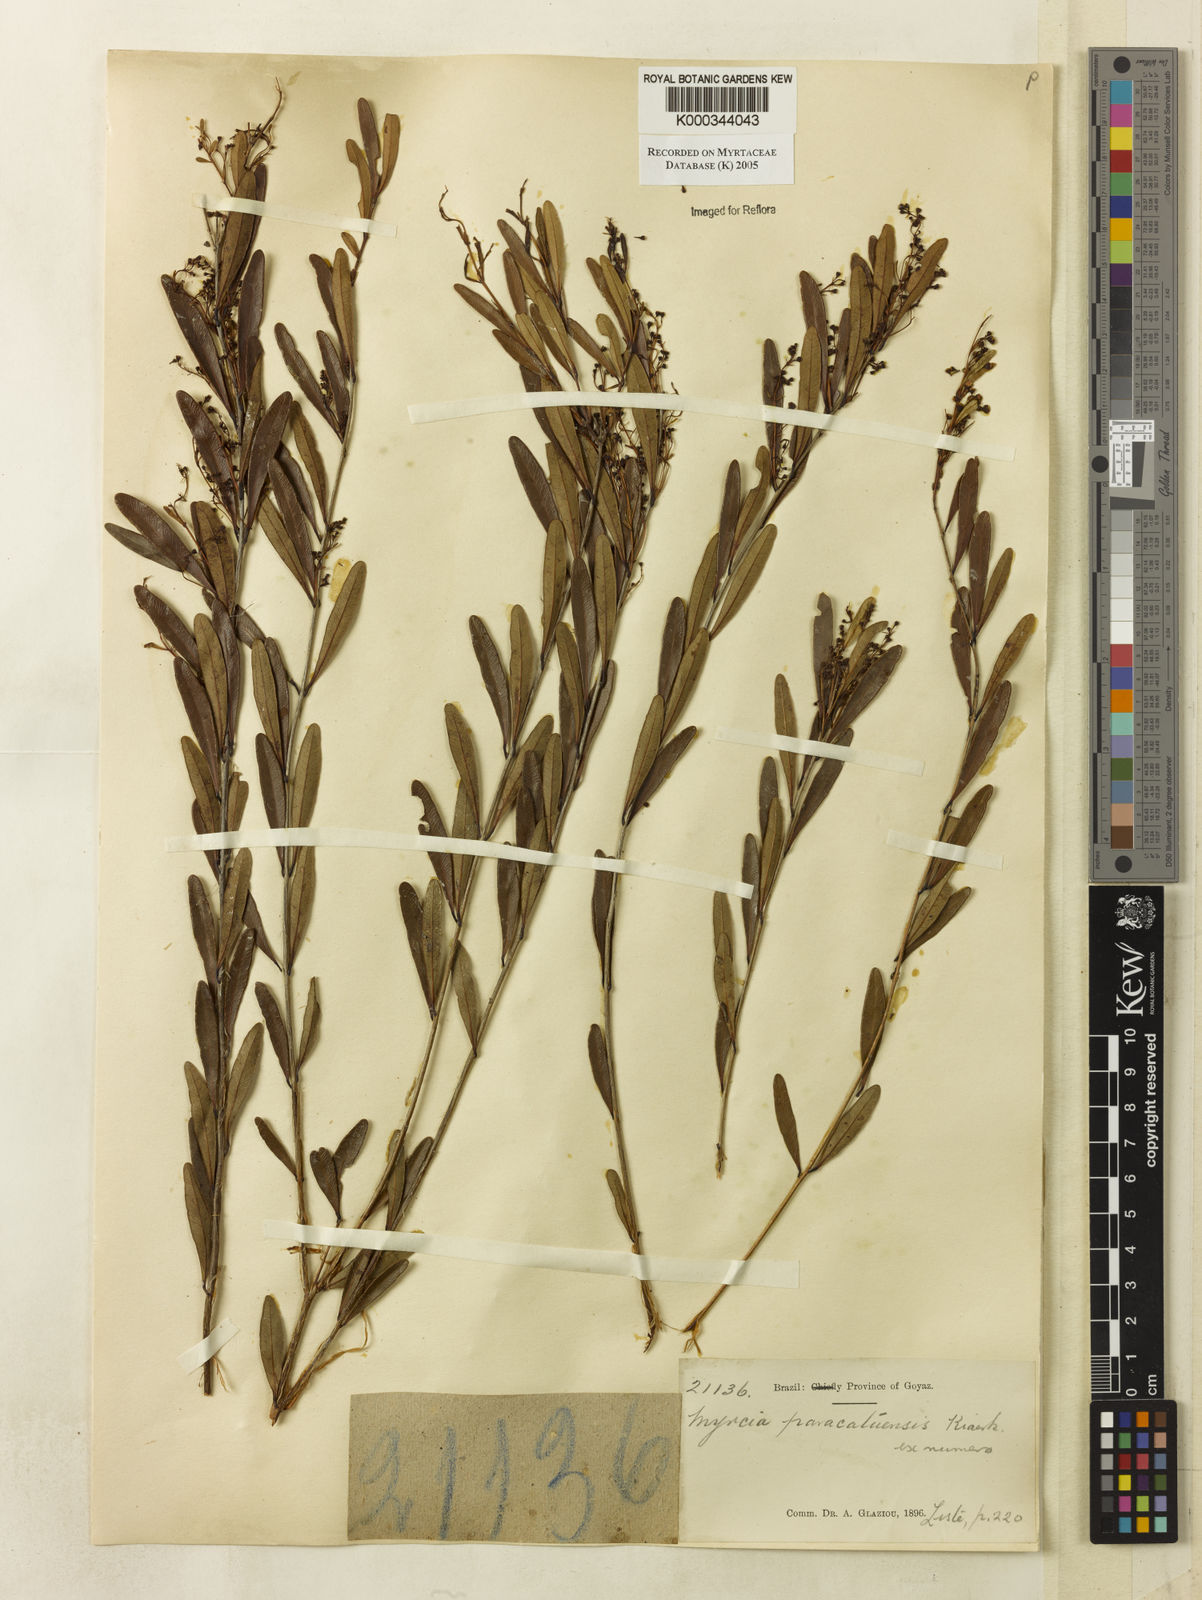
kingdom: Plantae
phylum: Tracheophyta
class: Magnoliopsida
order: Myrtales
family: Myrtaceae
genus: Myrcia
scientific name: Myrcia paracatuensis
